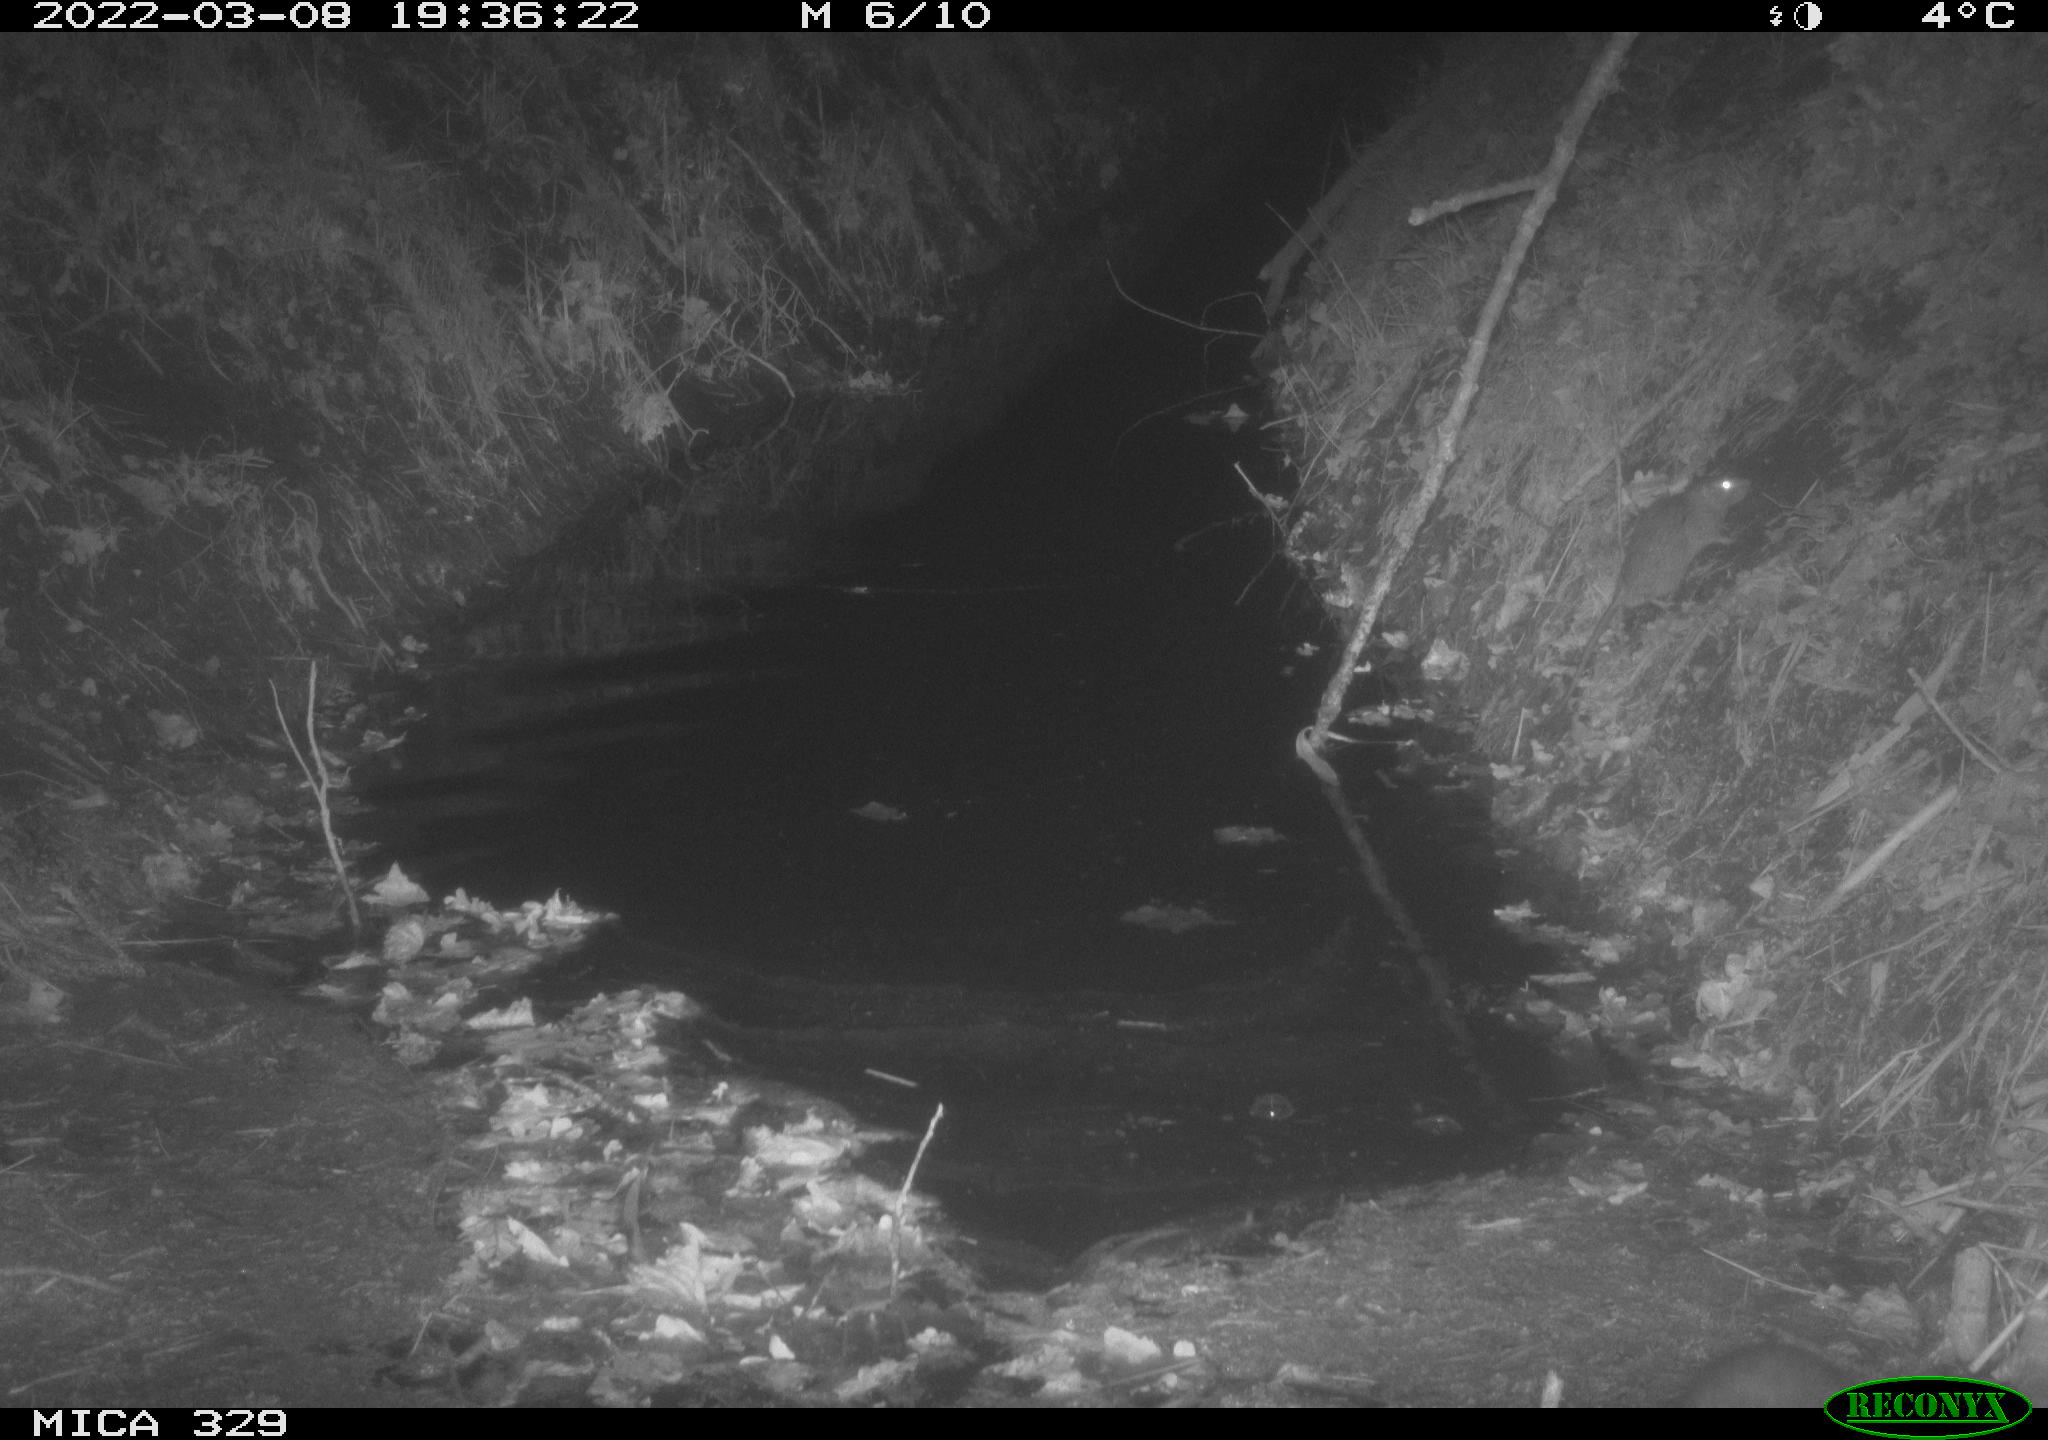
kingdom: Animalia
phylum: Chordata
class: Mammalia
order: Rodentia
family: Muridae
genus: Rattus
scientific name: Rattus norvegicus
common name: Brown rat
